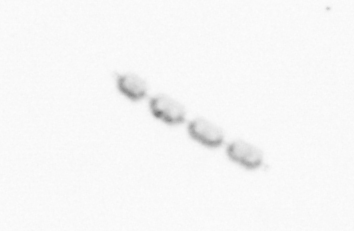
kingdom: Chromista
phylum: Ochrophyta
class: Bacillariophyceae
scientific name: Bacillariophyceae
